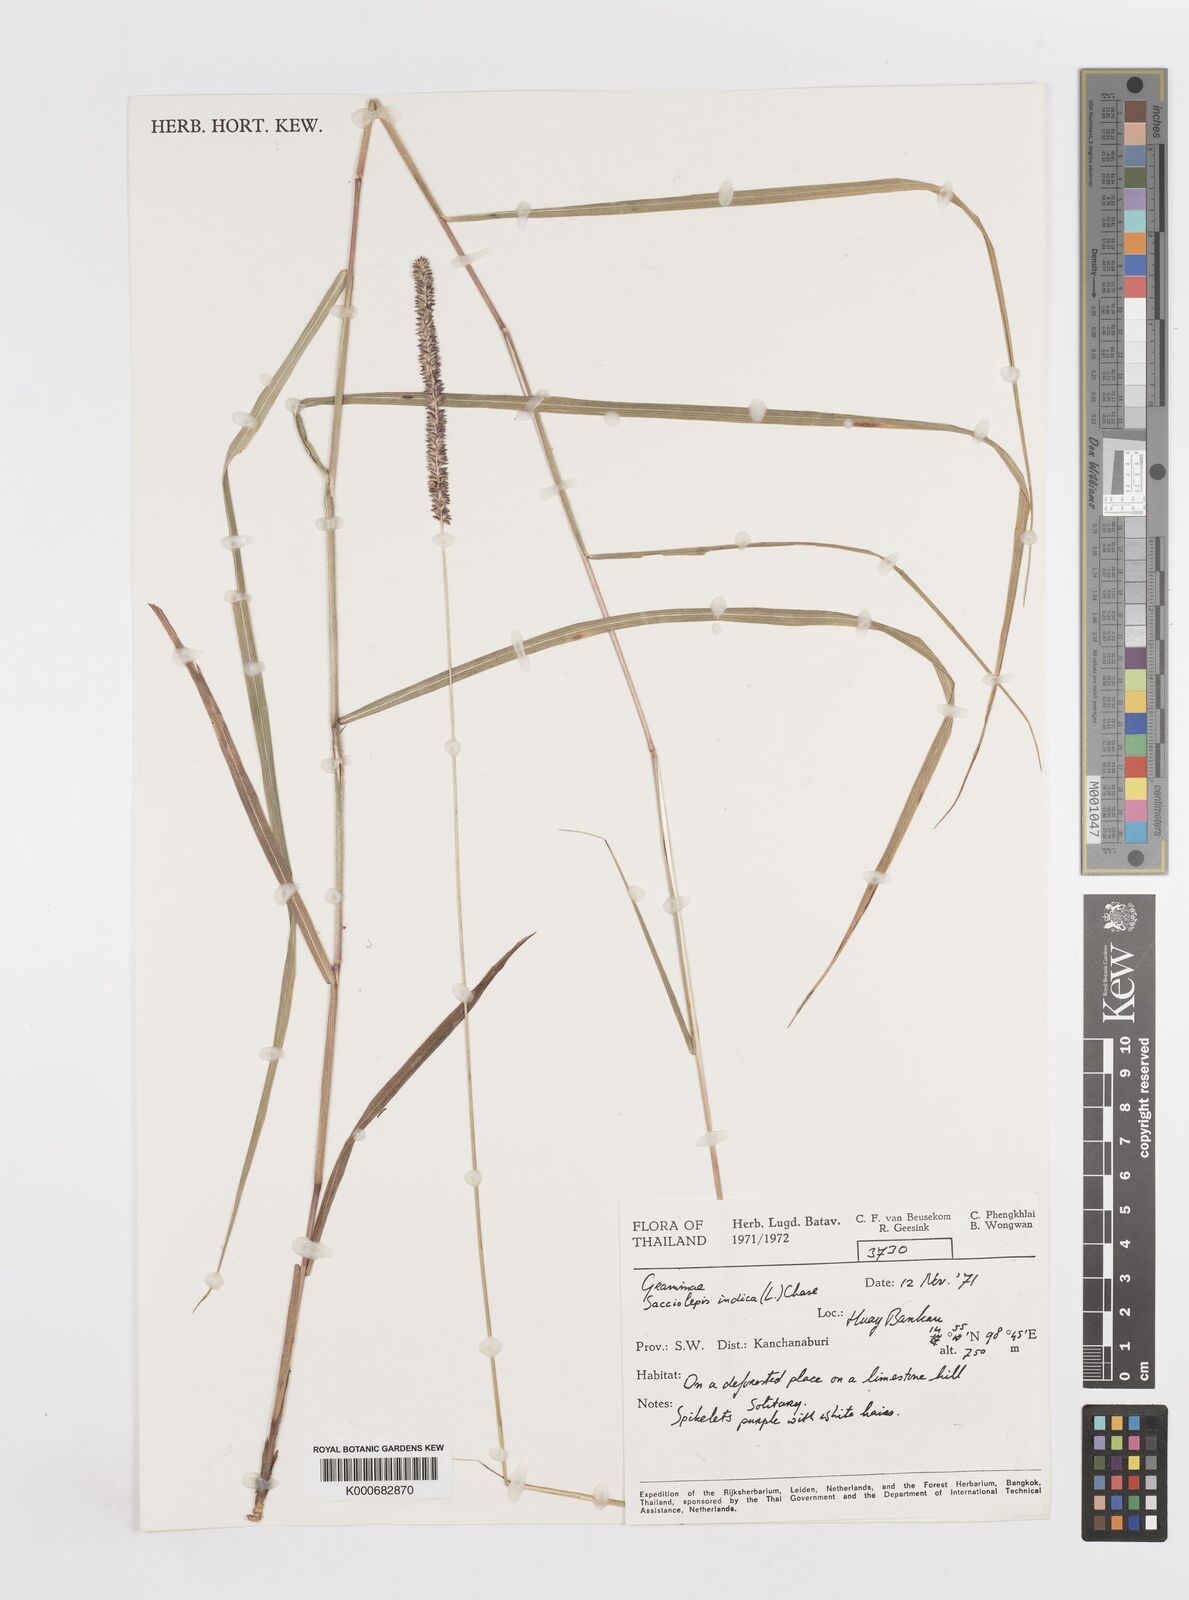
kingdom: Plantae
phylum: Tracheophyta
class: Liliopsida
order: Poales
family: Poaceae
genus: Sacciolepis
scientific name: Sacciolepis indica
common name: Glenwoodgrass
